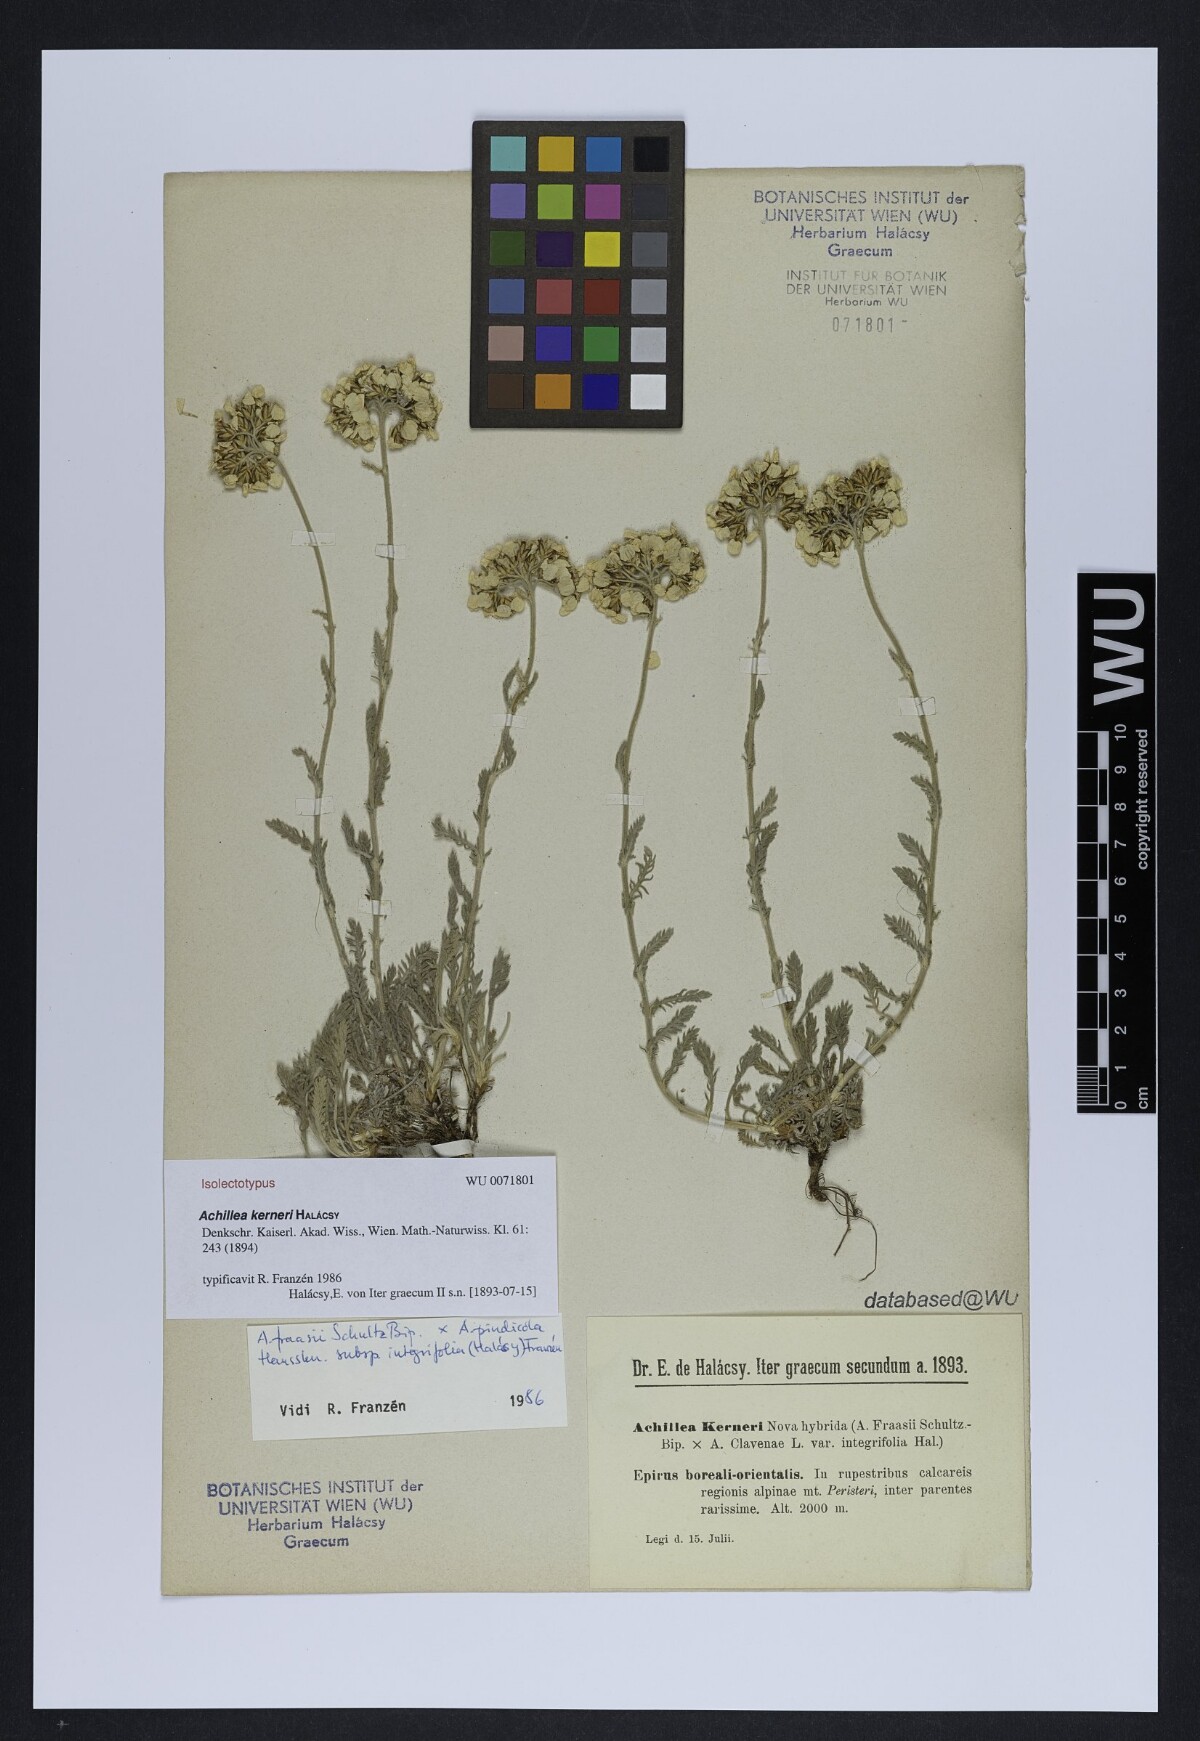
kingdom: Plantae
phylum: Tracheophyta
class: Magnoliopsida
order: Asterales
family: Asteraceae
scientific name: Asteraceae
